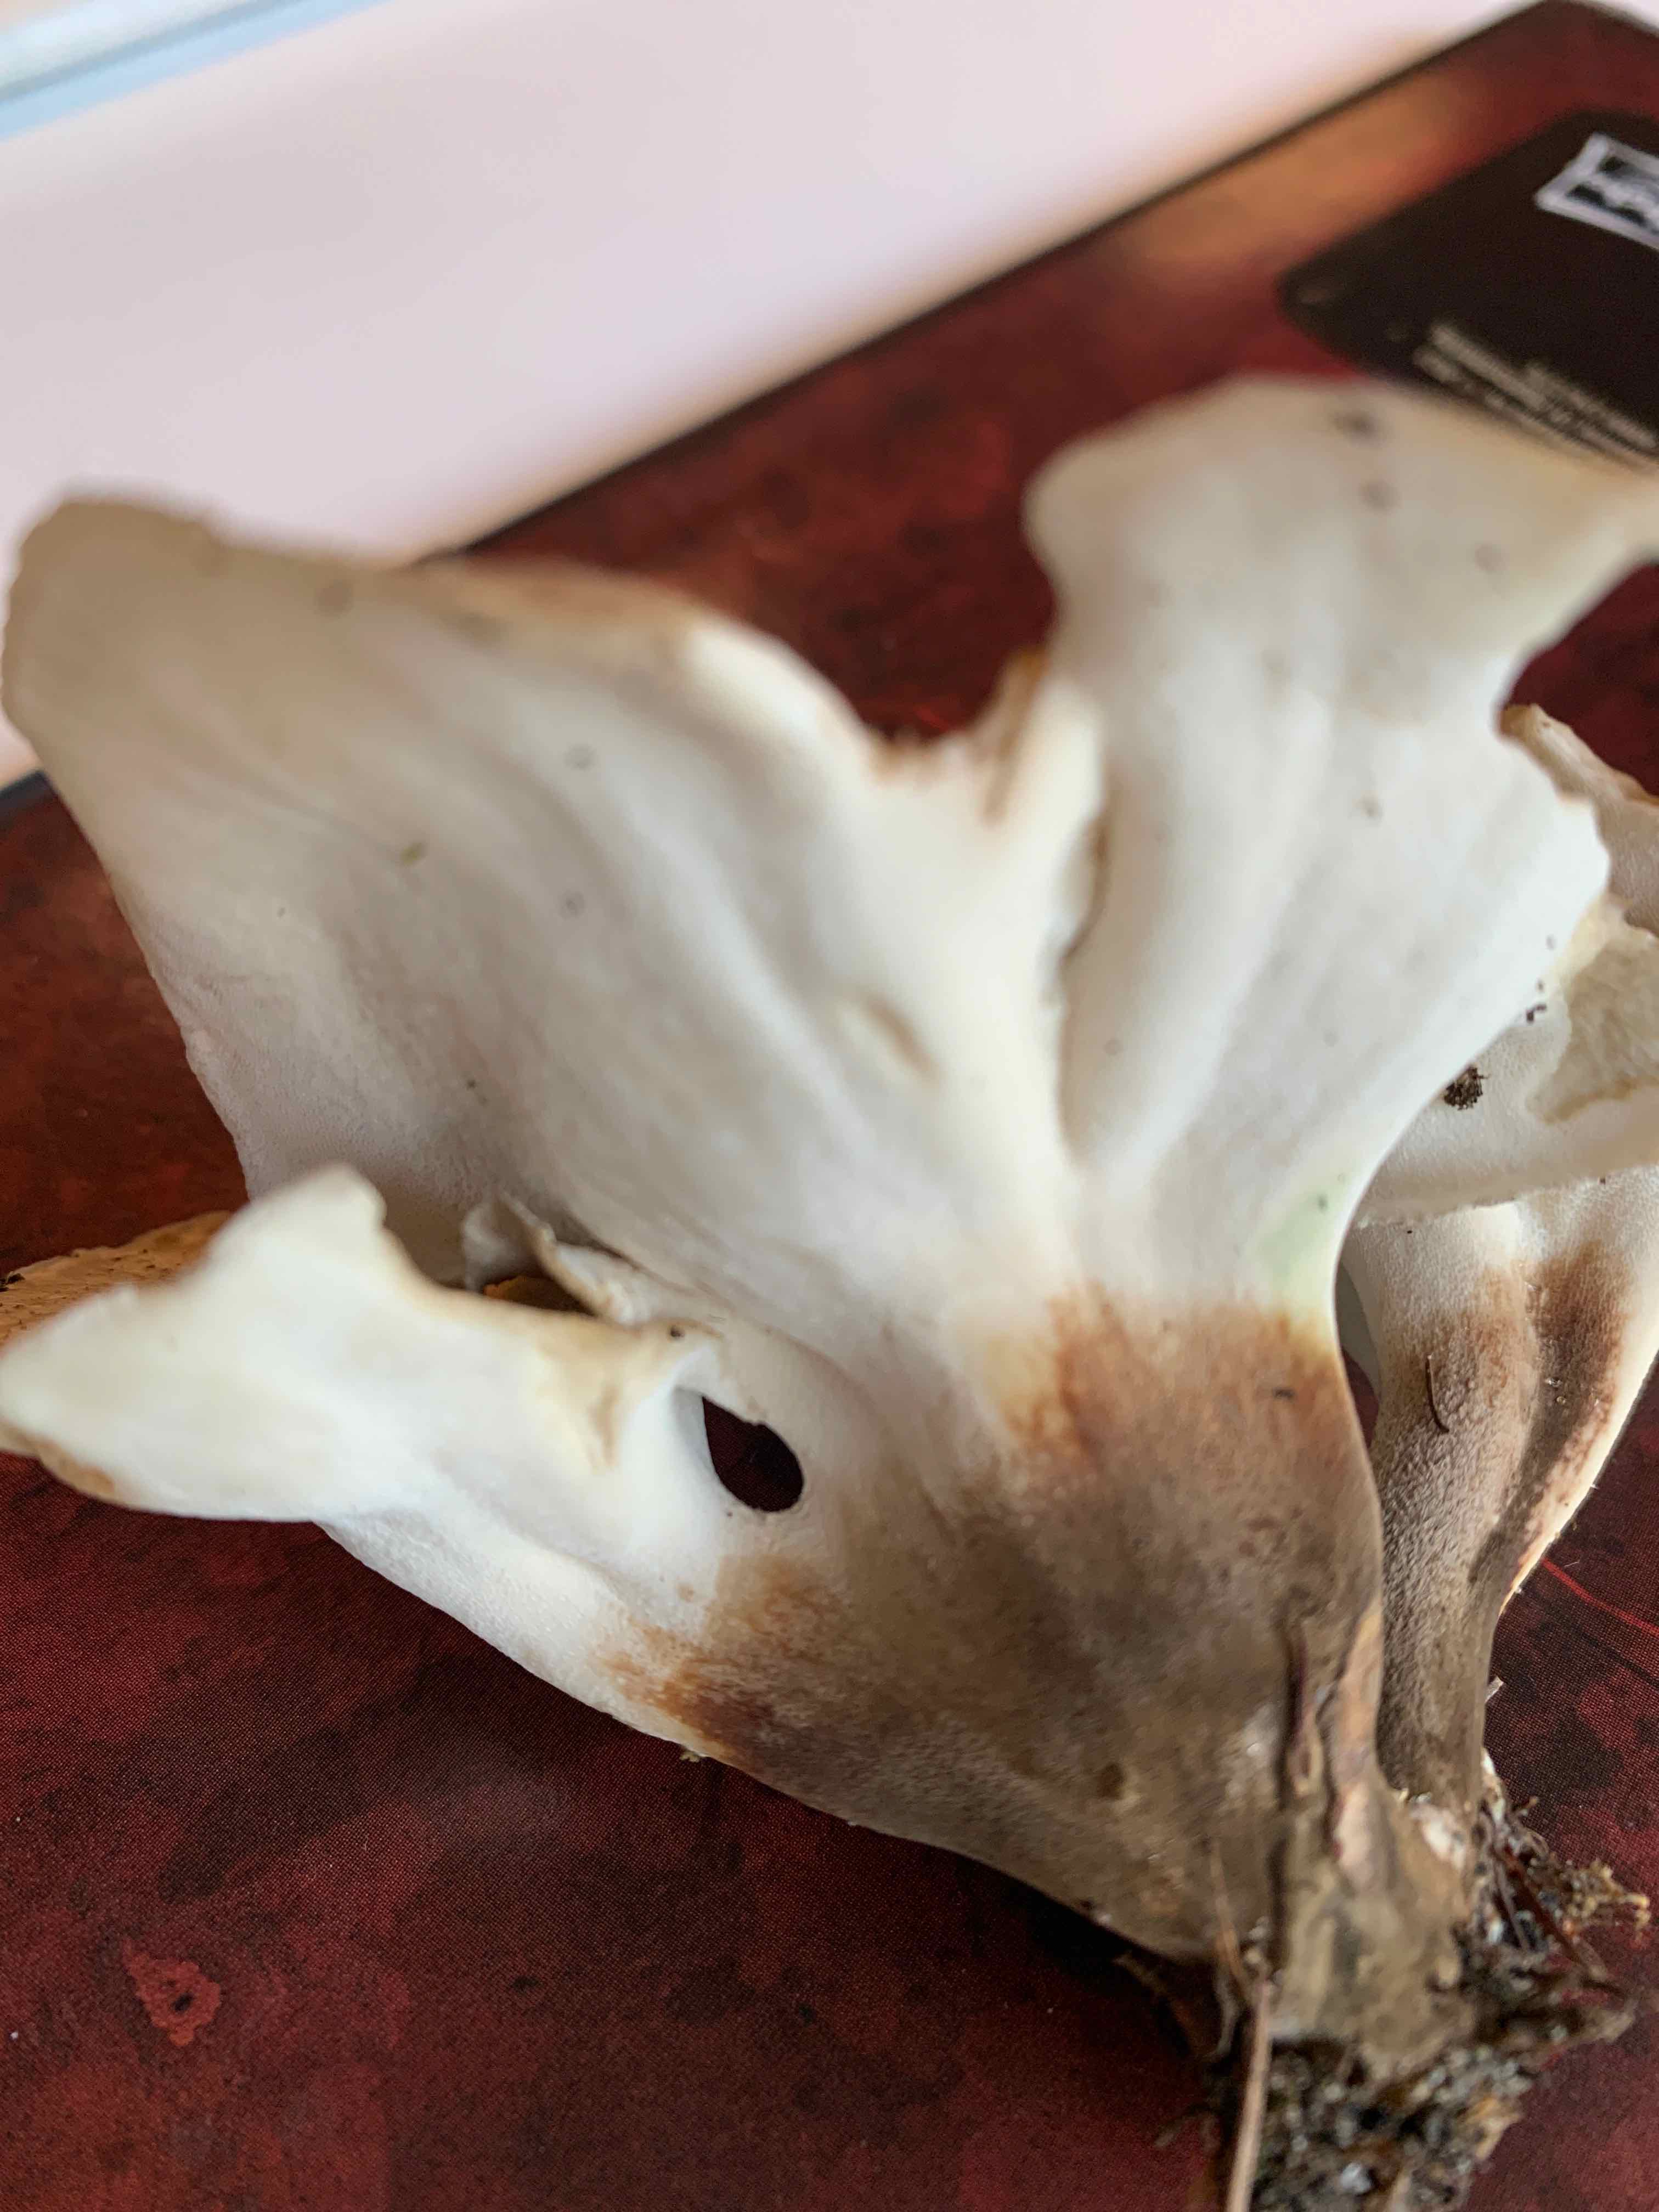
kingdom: Fungi
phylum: Basidiomycota
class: Agaricomycetes
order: Polyporales
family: Polyporaceae
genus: Picipes
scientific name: Picipes melanopus
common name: sortfodet stilkporesvamp
